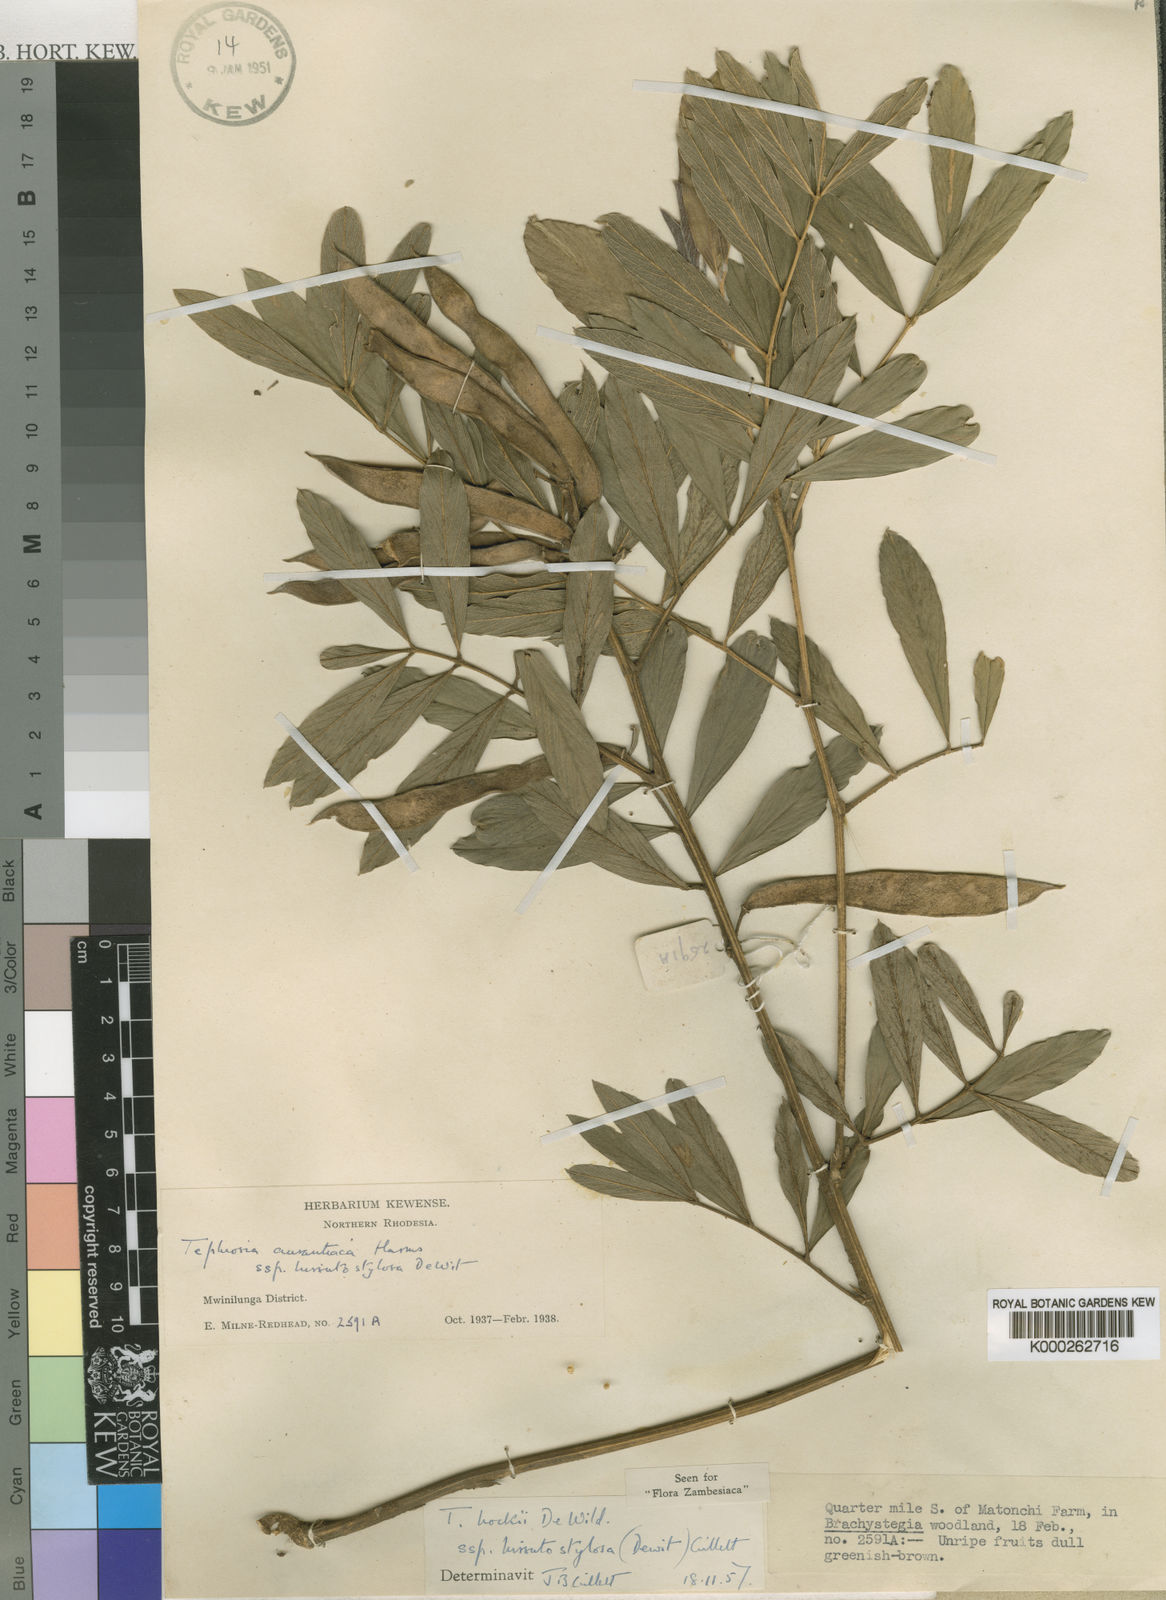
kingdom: Plantae
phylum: Tracheophyta
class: Magnoliopsida
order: Fabales
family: Fabaceae
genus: Tephrosia
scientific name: Tephrosia aurantiaca
